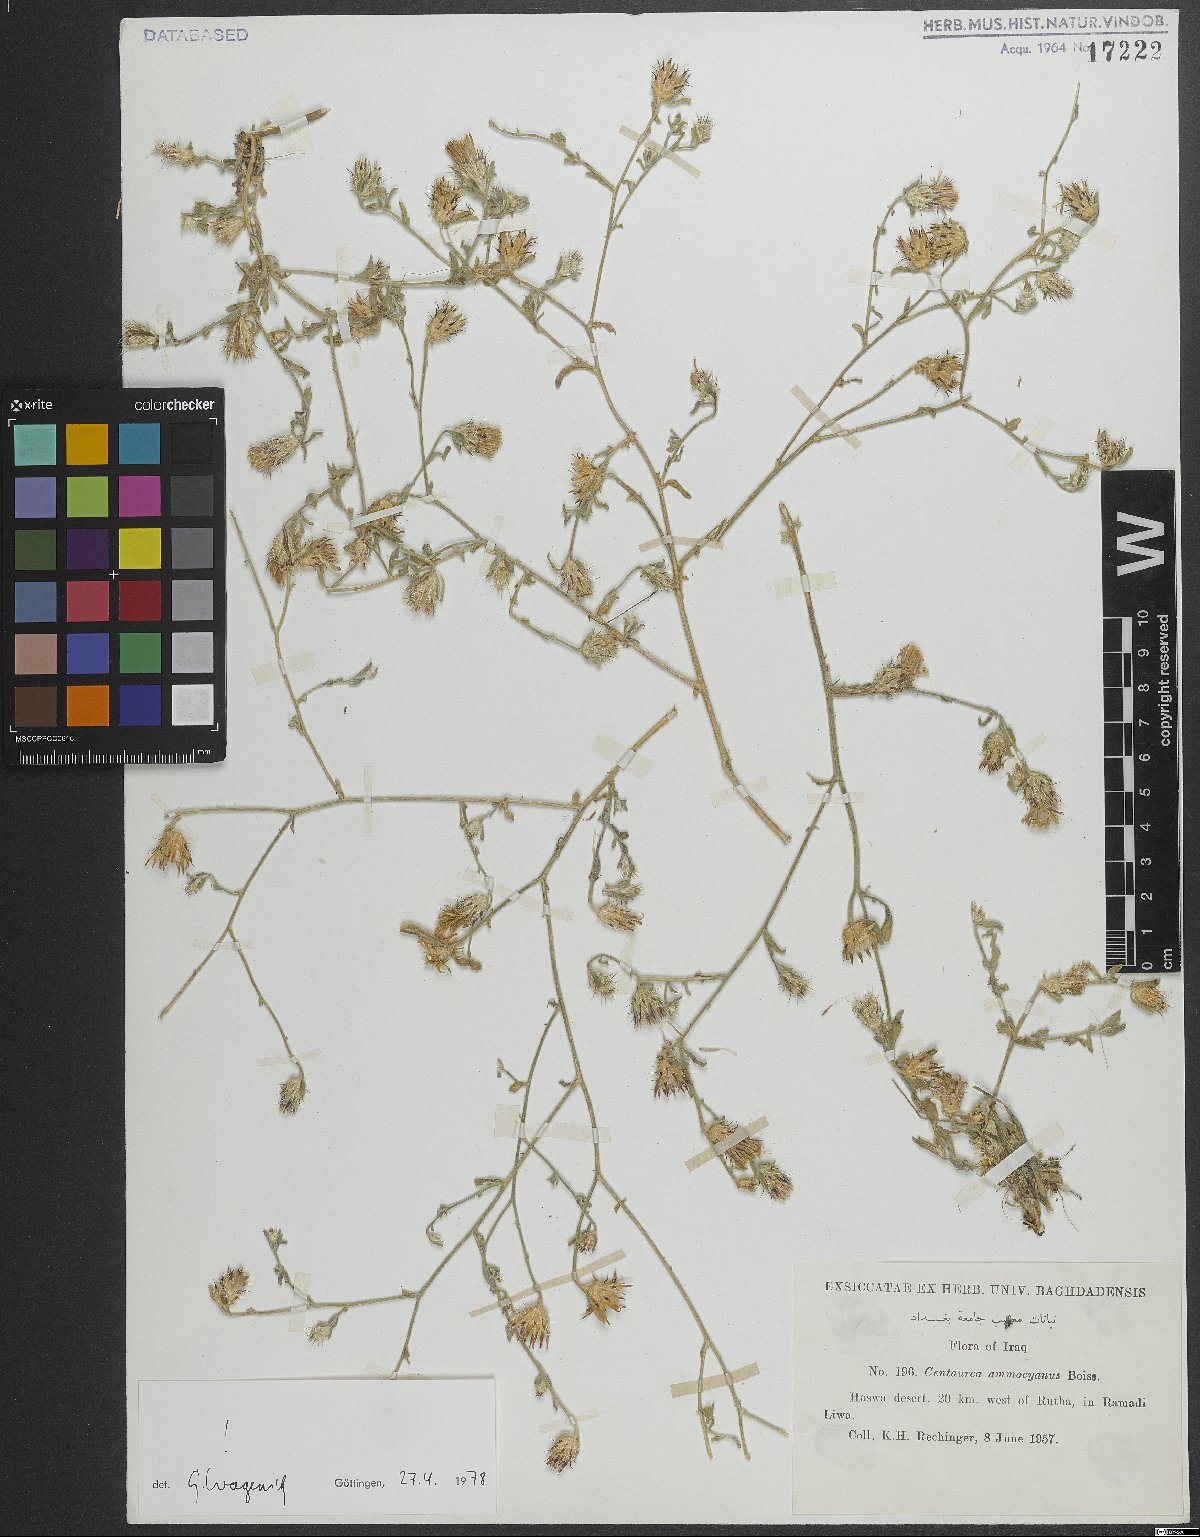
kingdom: Plantae
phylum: Tracheophyta
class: Magnoliopsida
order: Asterales
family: Asteraceae
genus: Centaurea
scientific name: Centaurea ammocyanus
